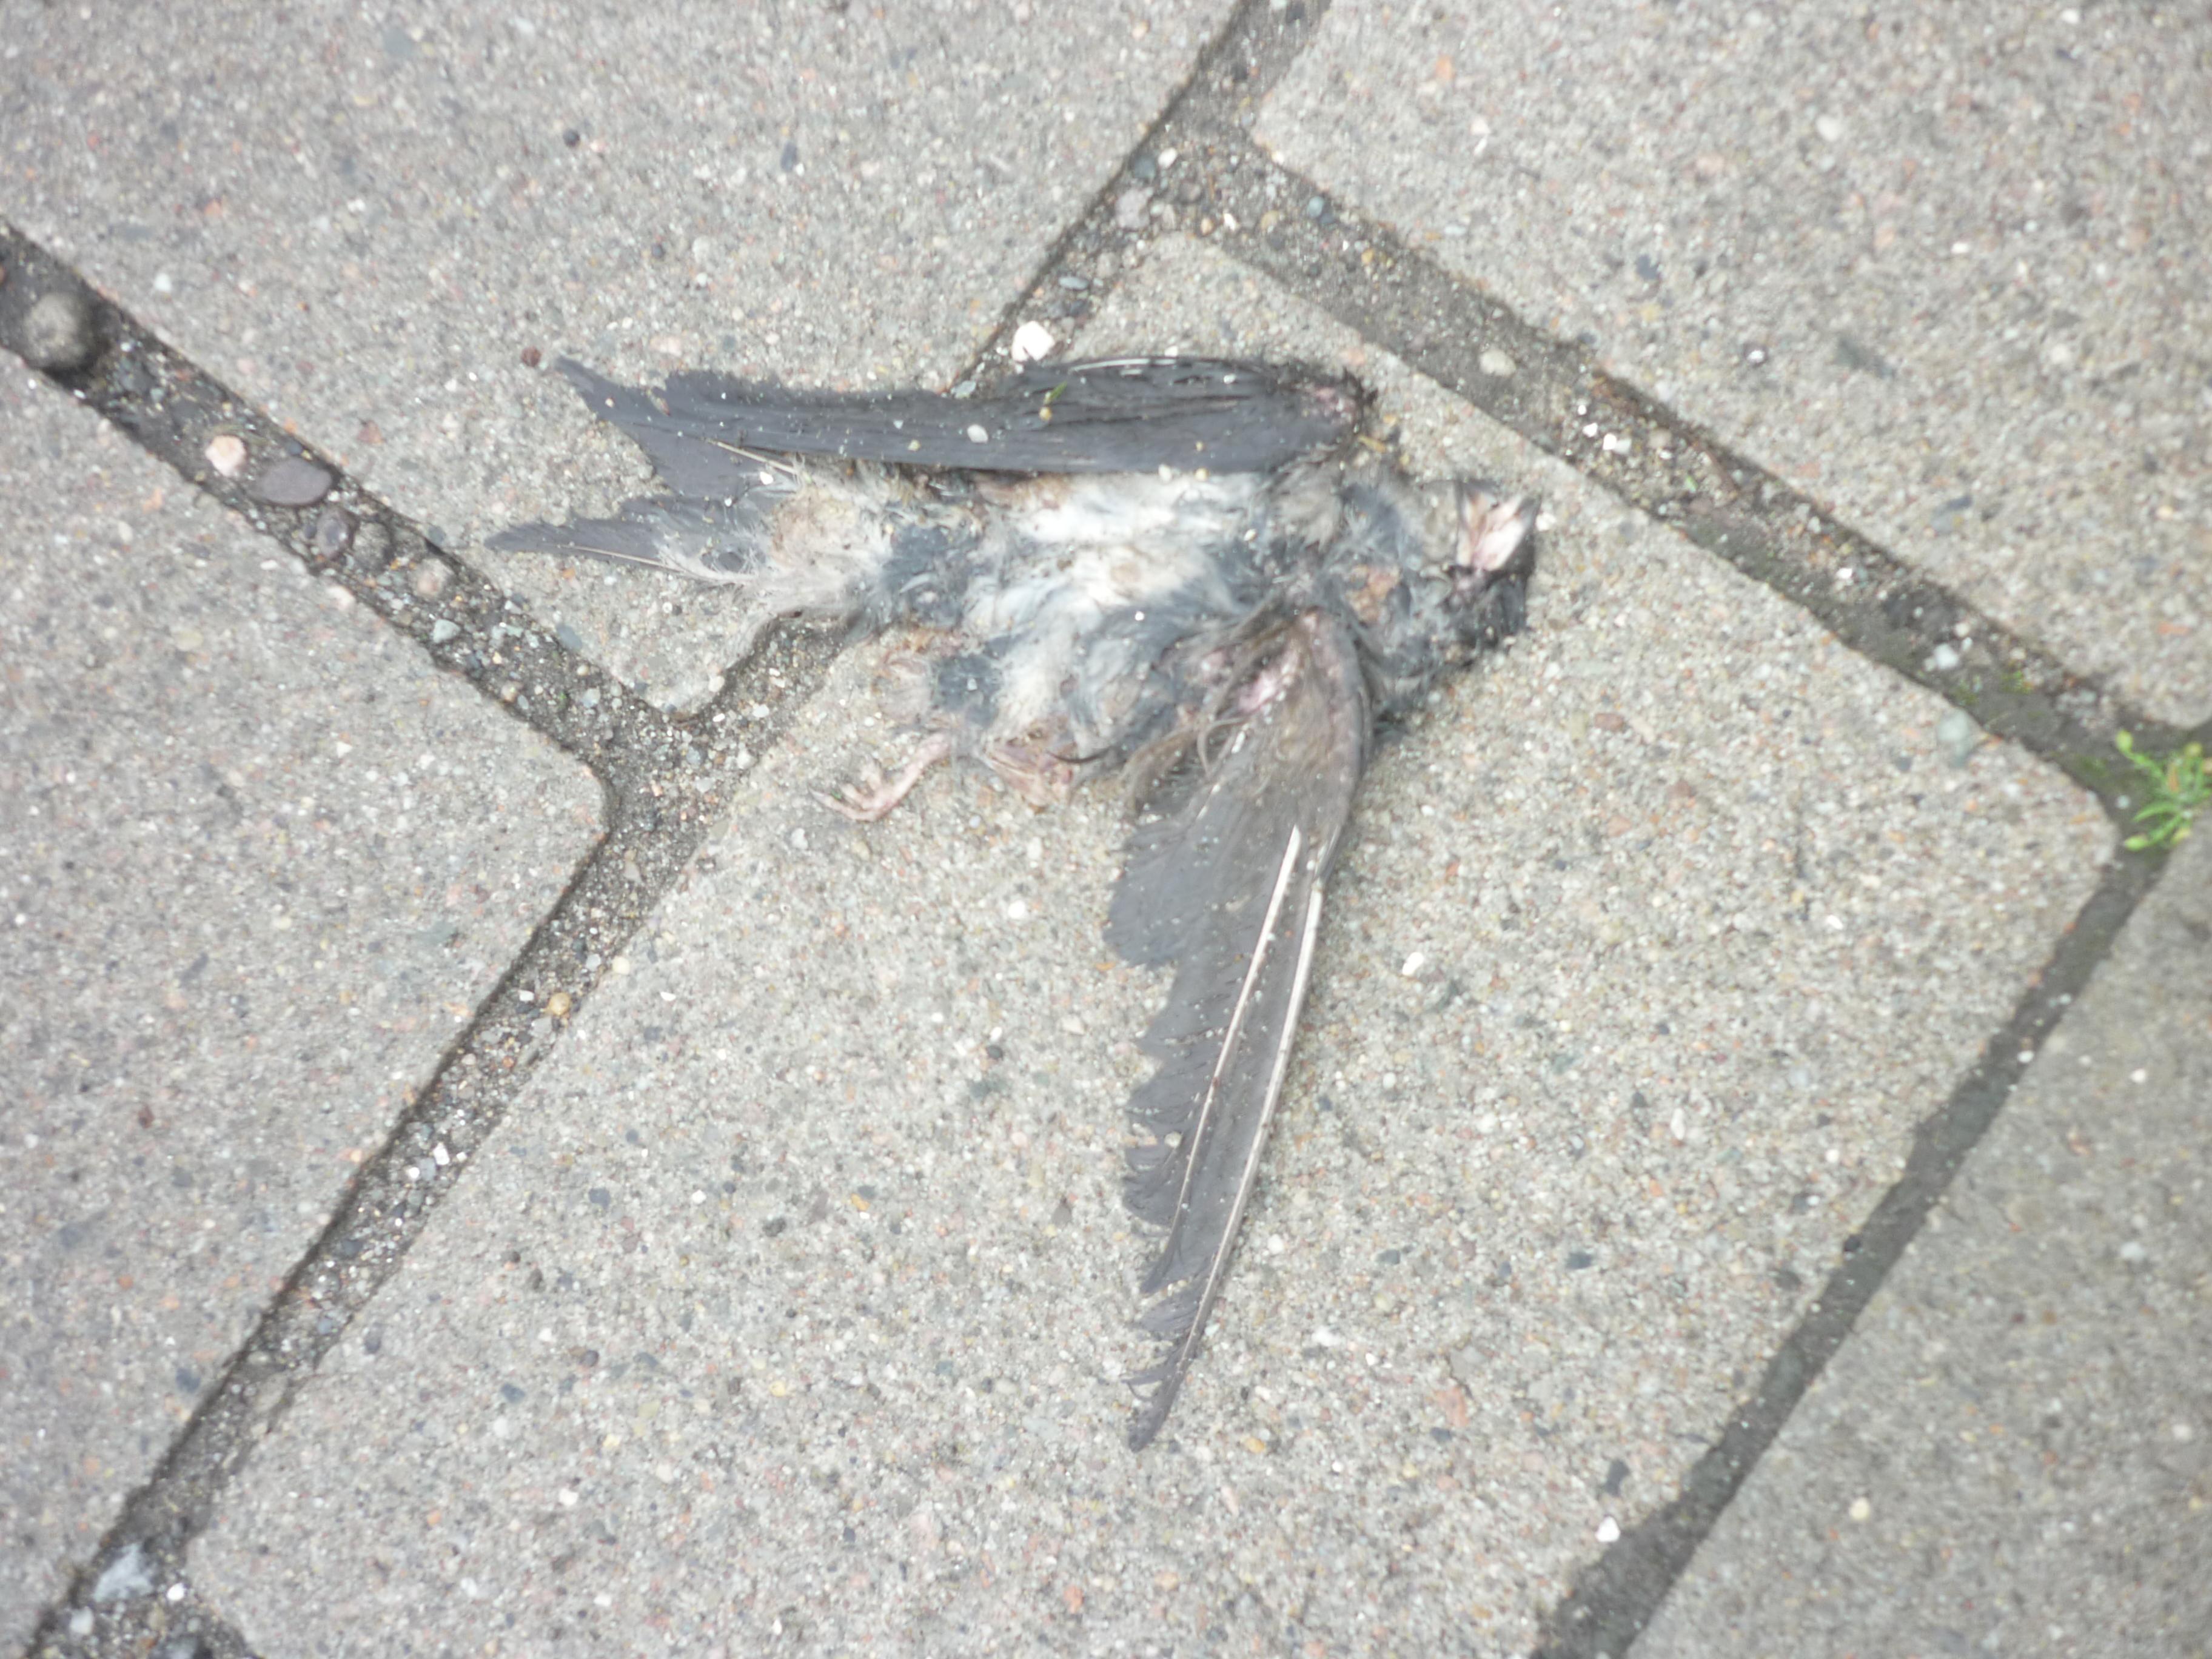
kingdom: Animalia
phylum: Chordata
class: Aves
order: Passeriformes
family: Hirundinidae
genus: Hirundo
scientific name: Hirundo rustica
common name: Barn swallow
